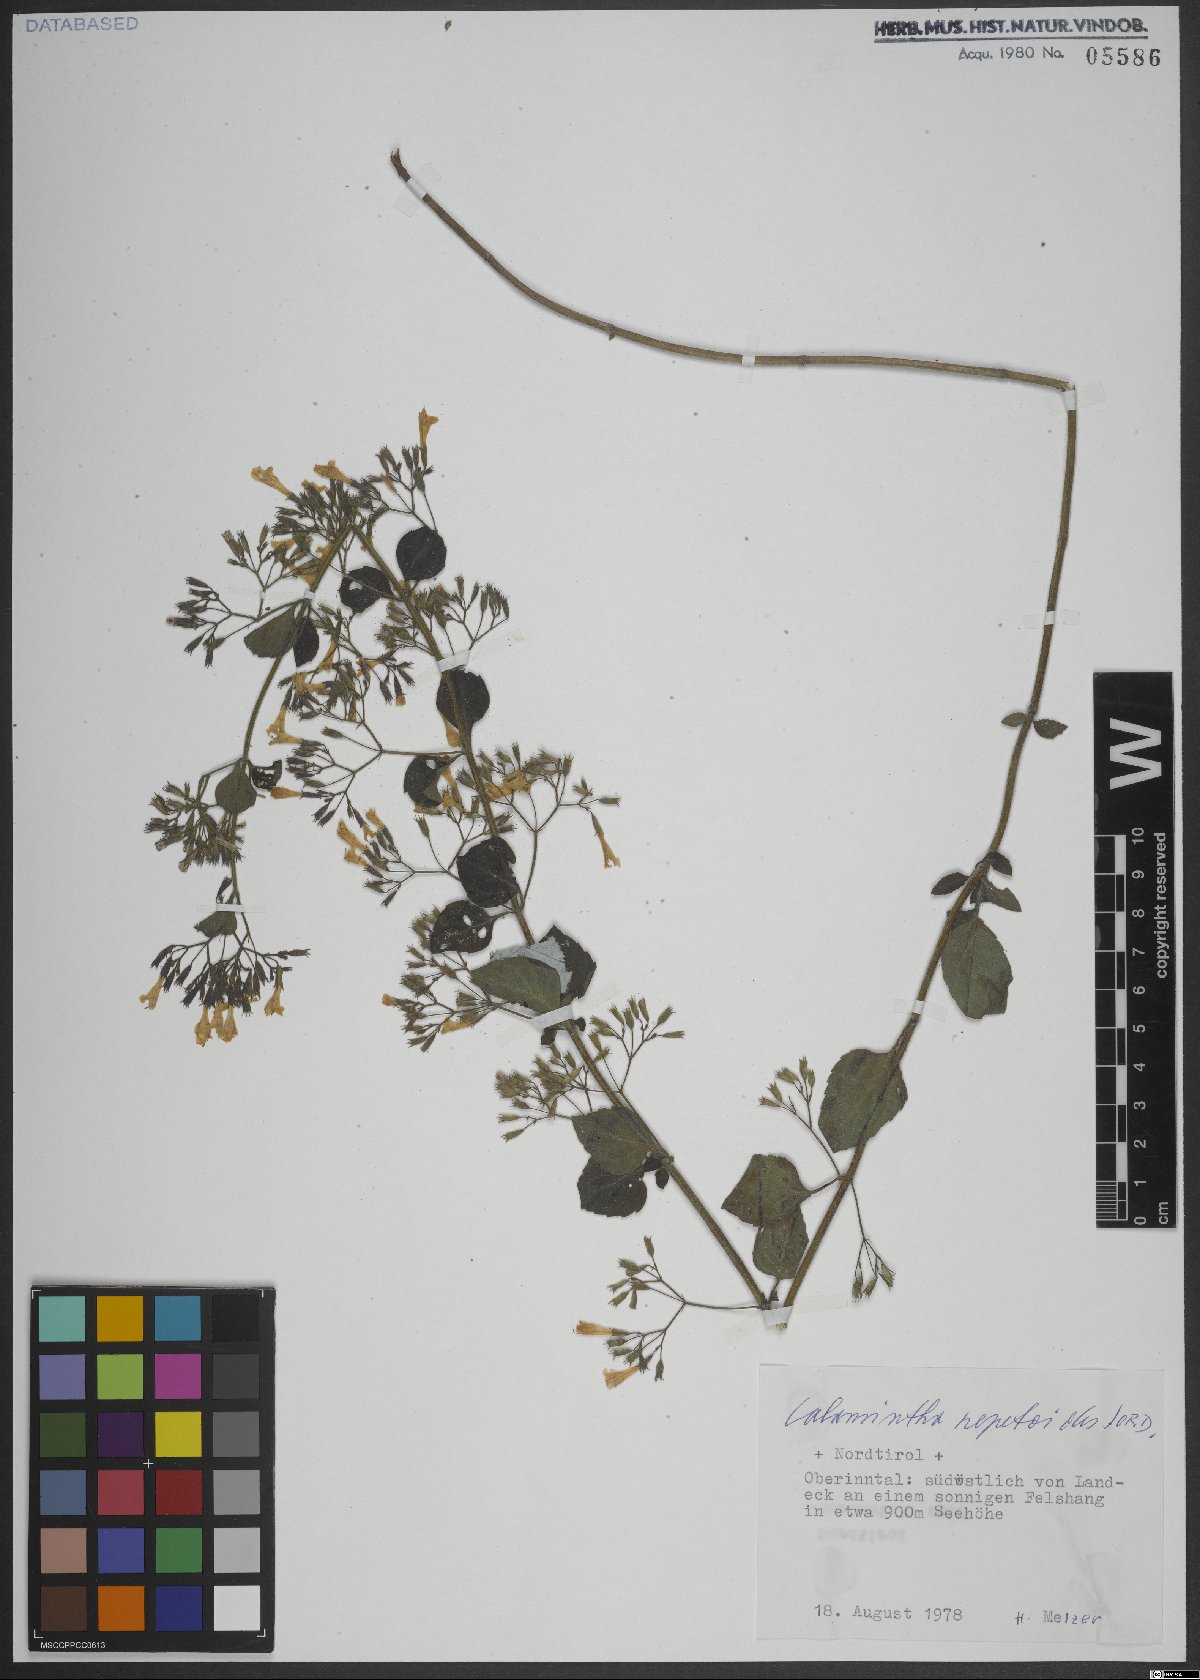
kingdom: Plantae
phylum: Tracheophyta
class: Magnoliopsida
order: Lamiales
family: Lamiaceae
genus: Clinopodium
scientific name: Clinopodium nepeta
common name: Lesser calamint
